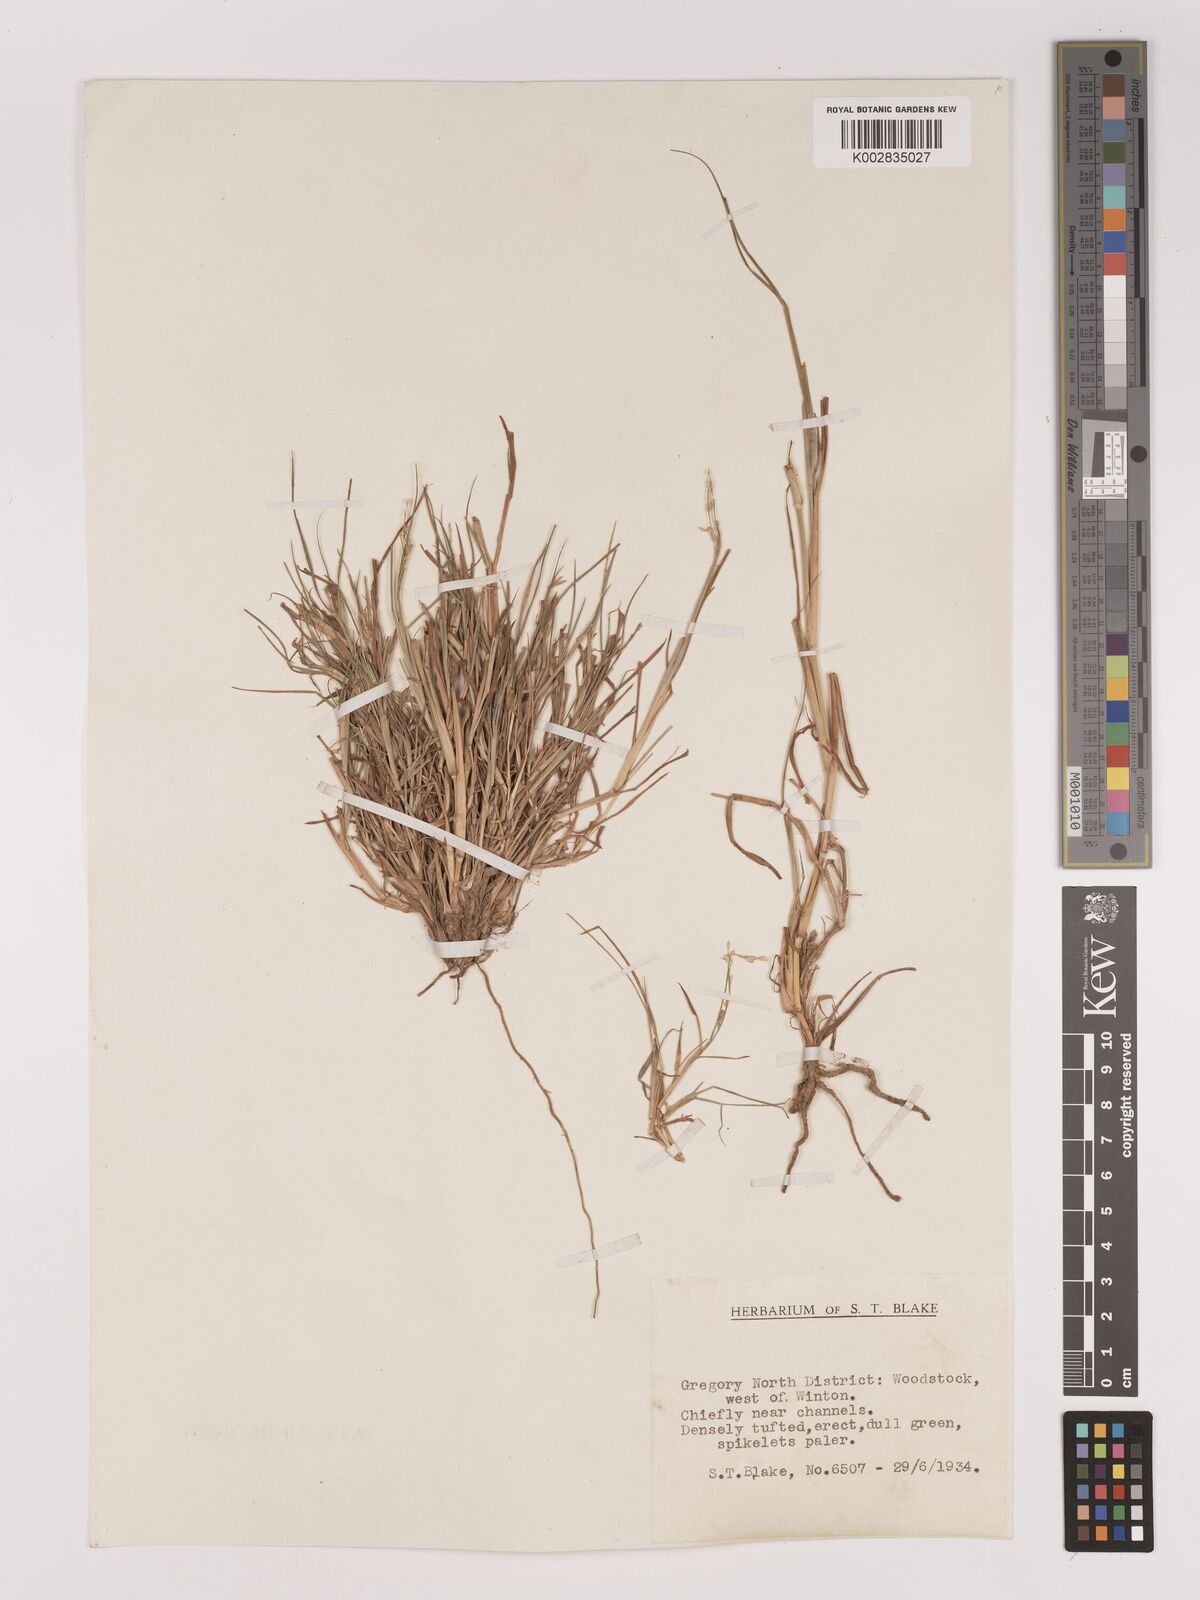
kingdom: Plantae
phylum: Tracheophyta
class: Liliopsida
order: Poales
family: Poaceae
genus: Setaria
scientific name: Setaria
